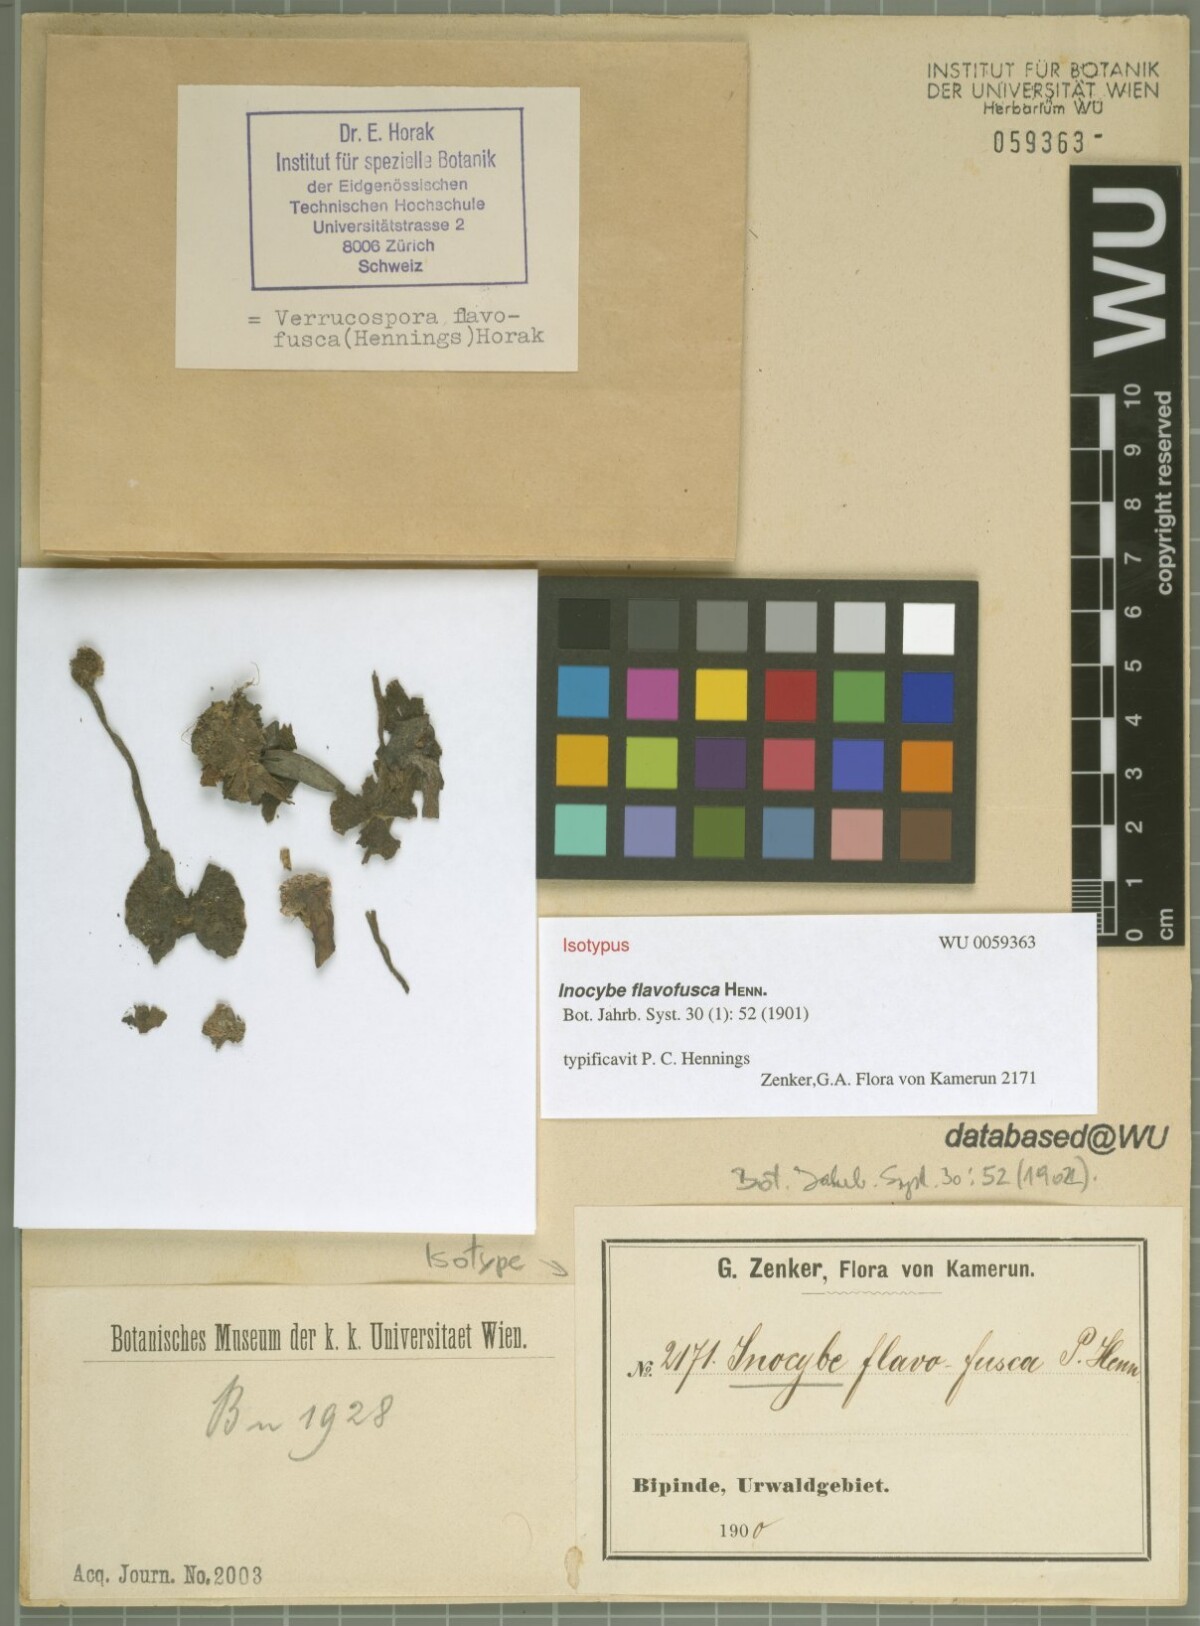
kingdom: Fungi
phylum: Basidiomycota
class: Agaricomycetes
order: Agaricales
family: Agaricaceae
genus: Verrucospora
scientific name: Verrucospora flavofusca
